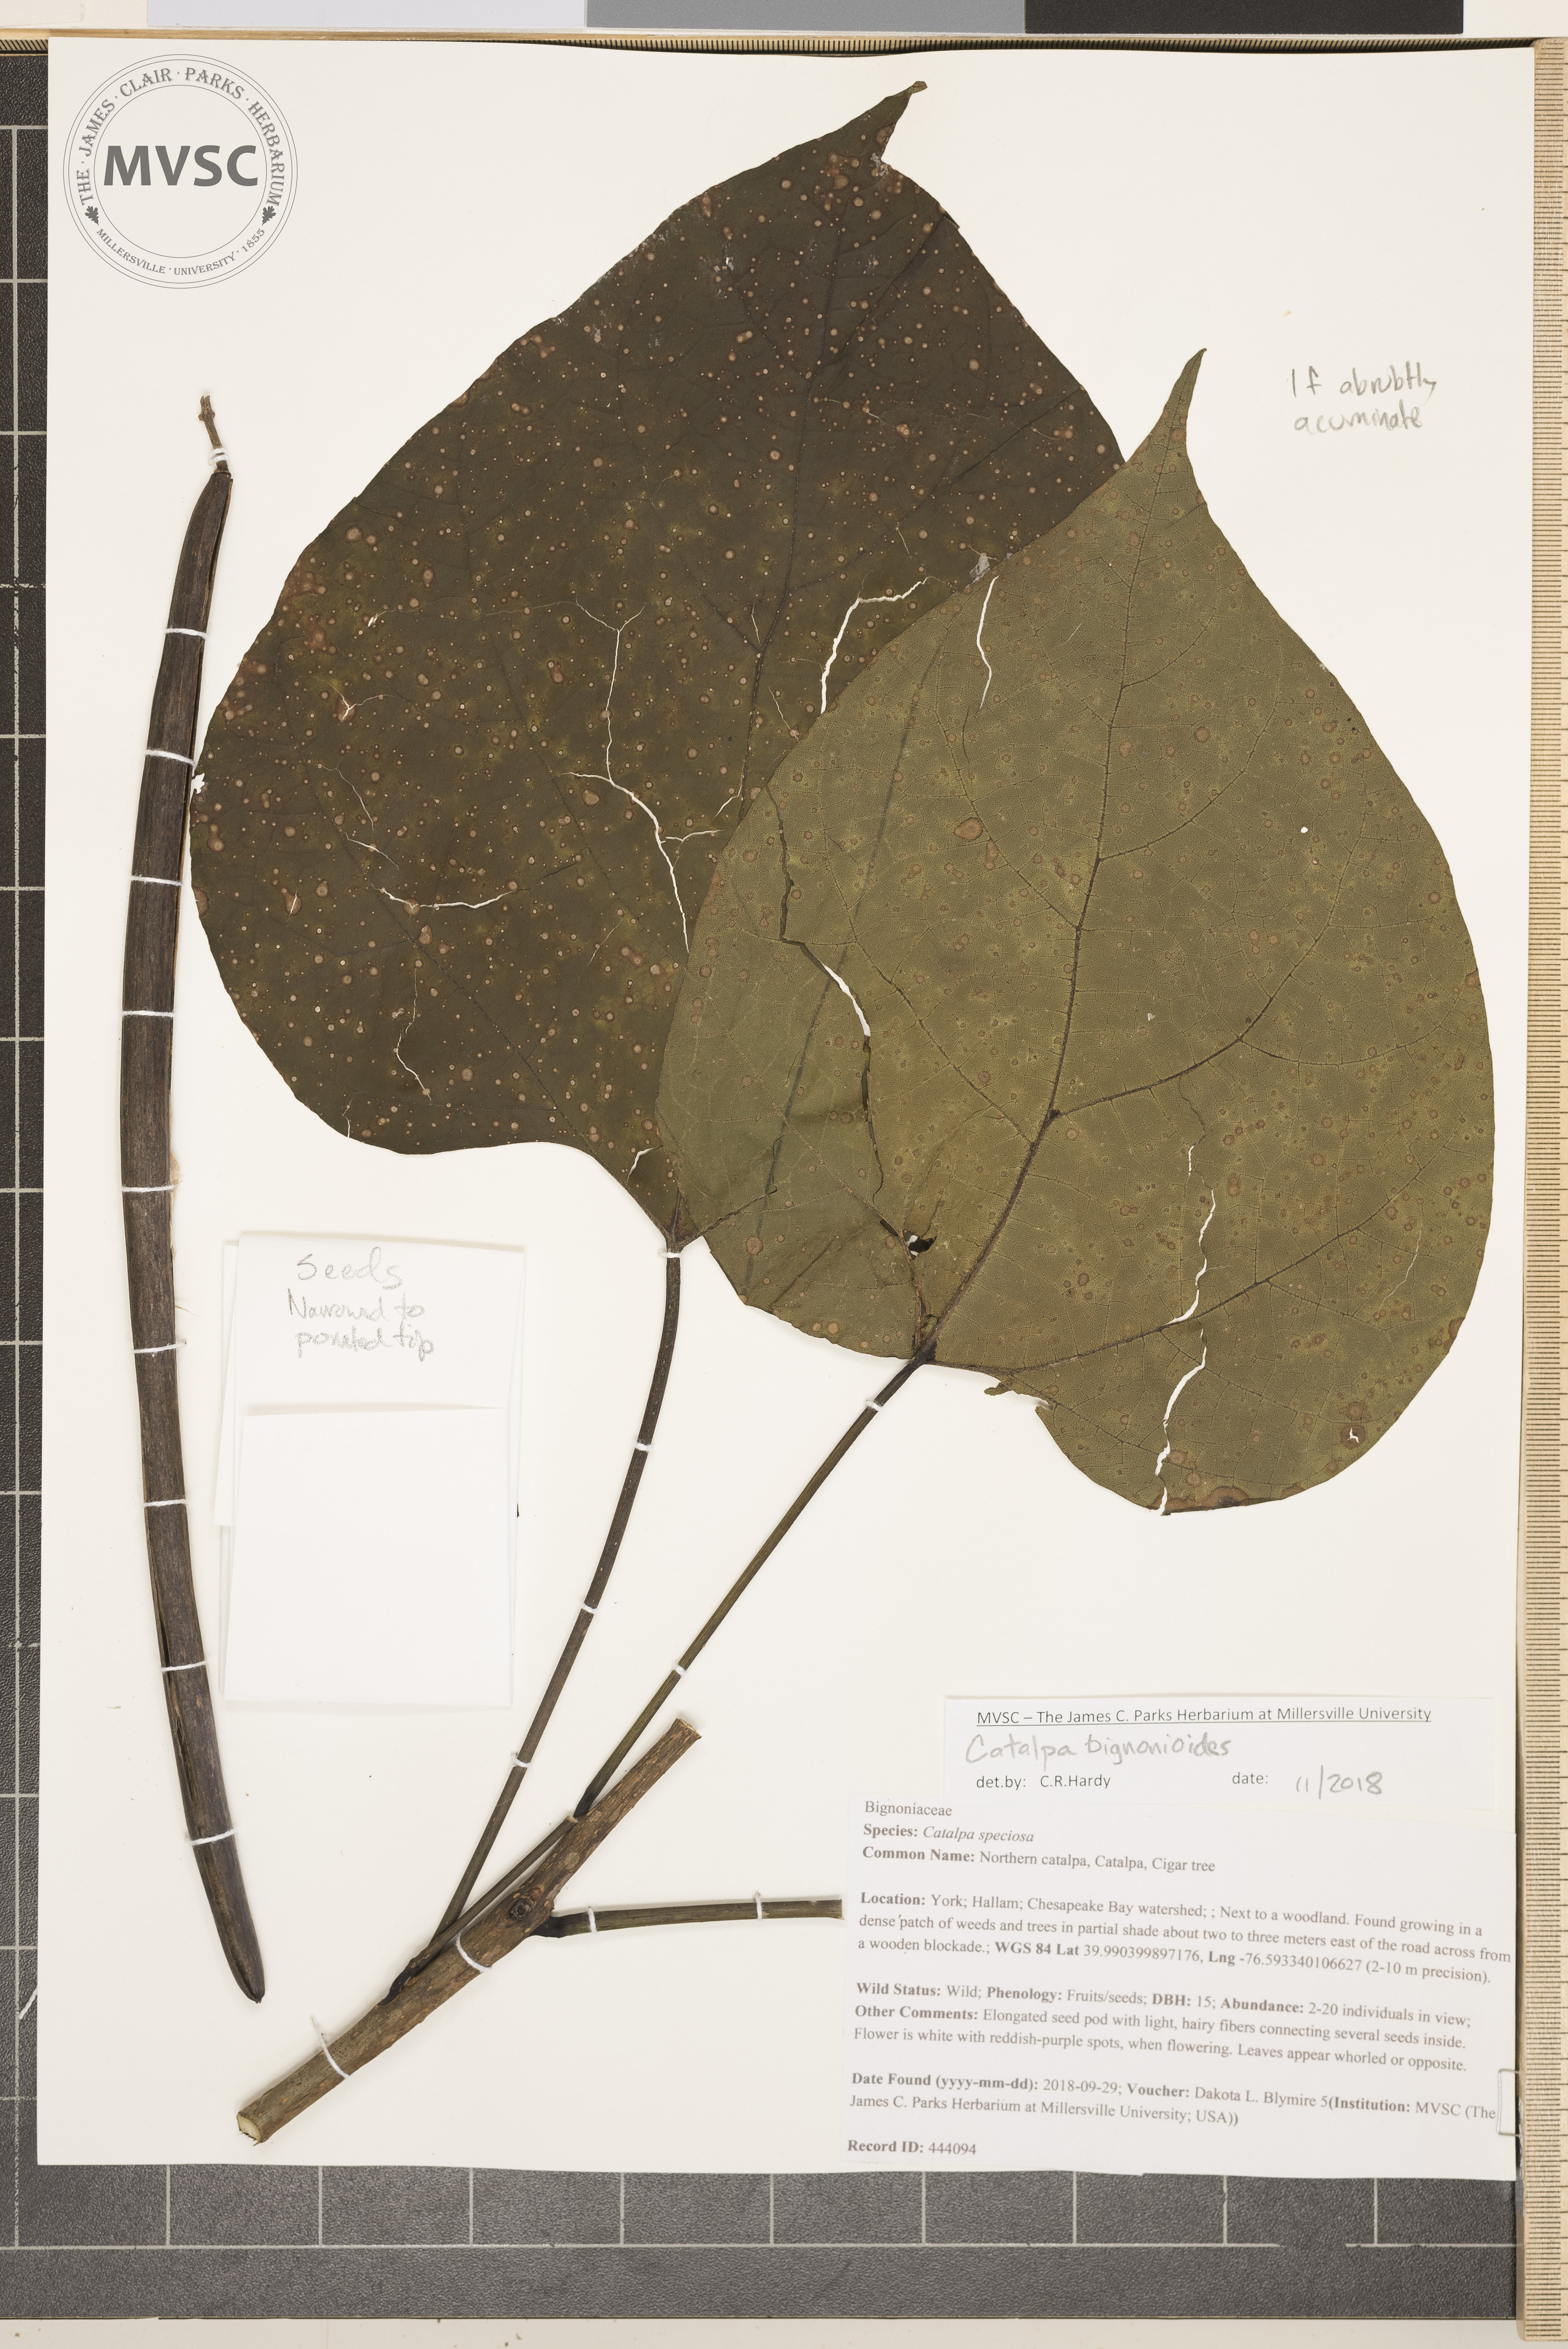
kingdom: Plantae
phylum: Tracheophyta
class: Magnoliopsida
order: Lamiales
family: Bignoniaceae
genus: Catalpa
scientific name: Catalpa bignonioides
